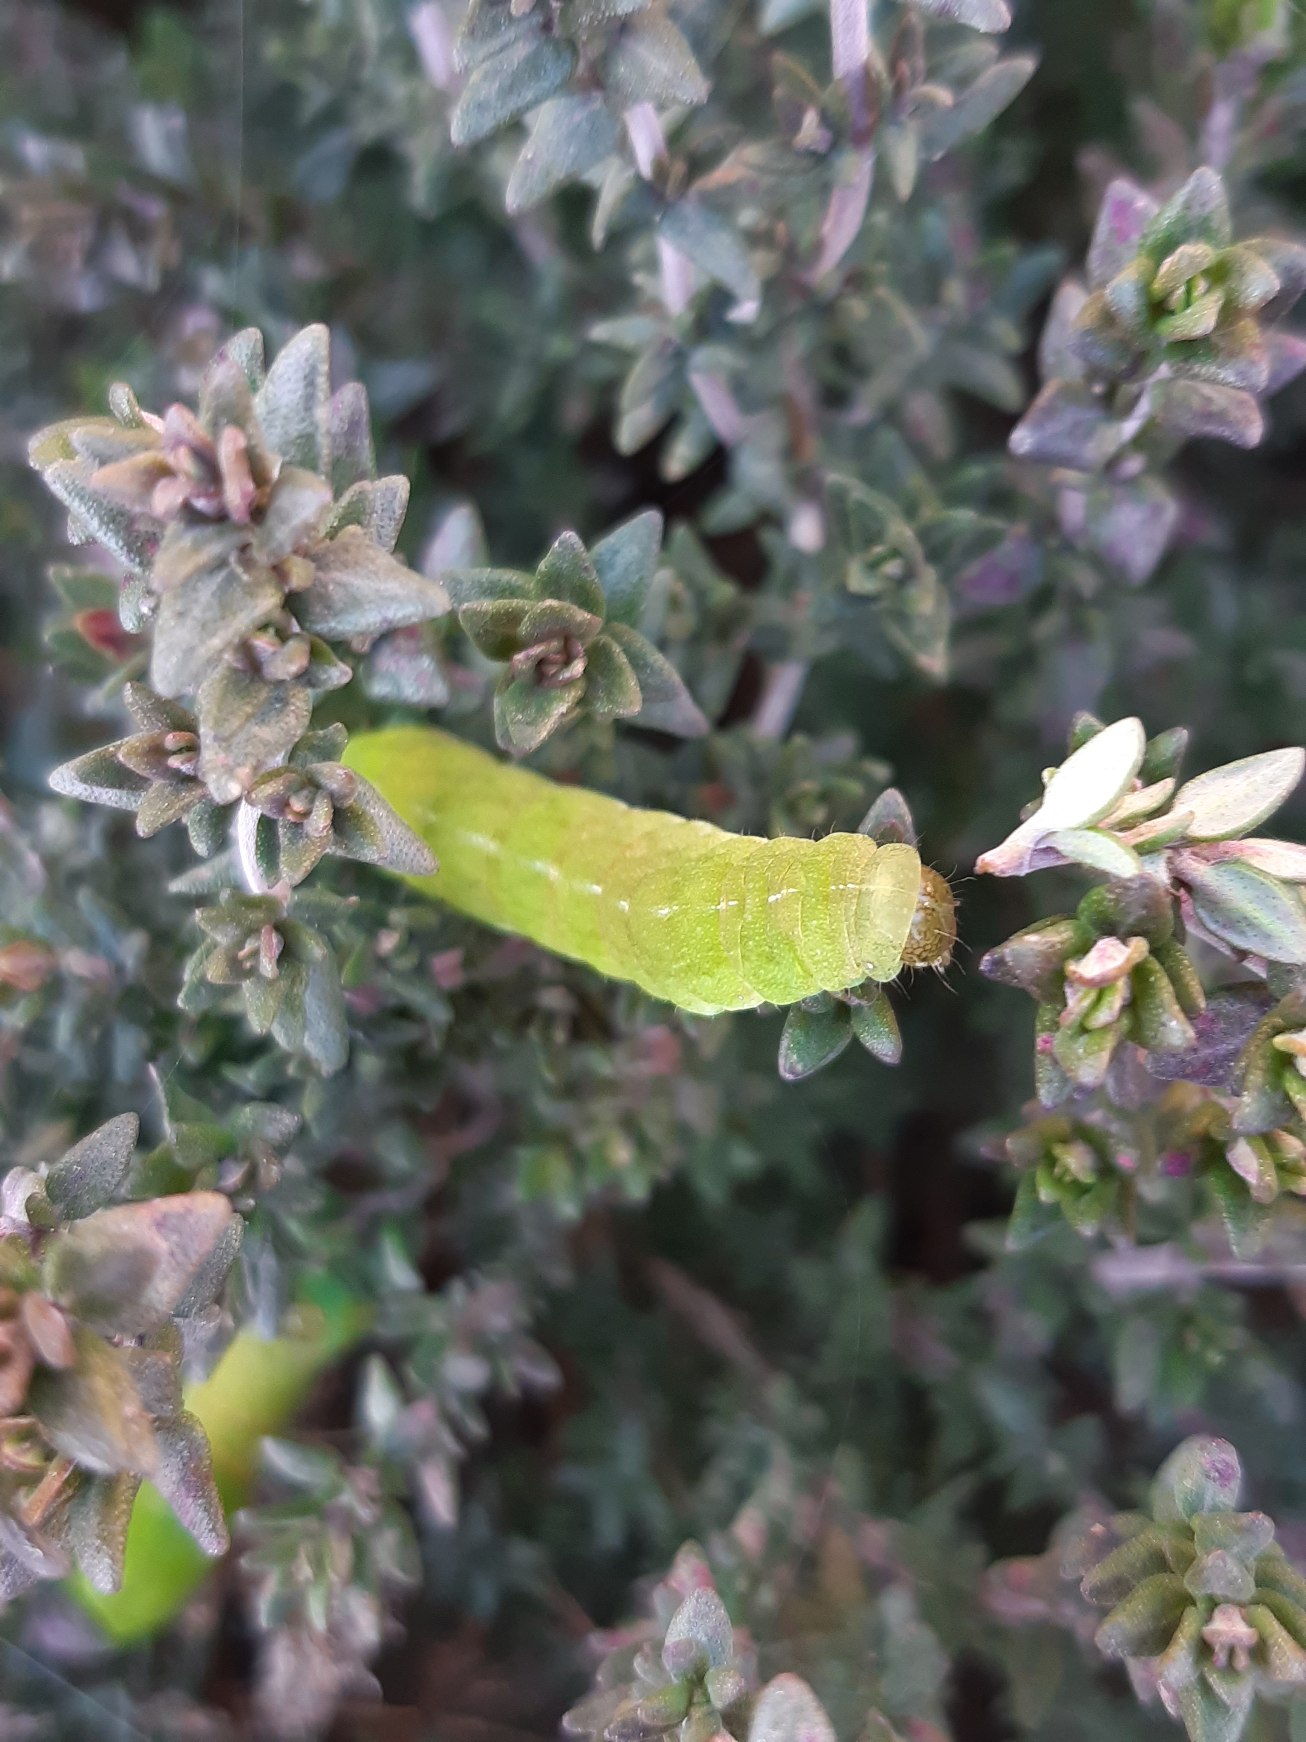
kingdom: Animalia
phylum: Arthropoda
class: Insecta
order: Lepidoptera
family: Noctuidae
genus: Phlogophora
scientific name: Phlogophora meticulosa
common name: Agatugle
